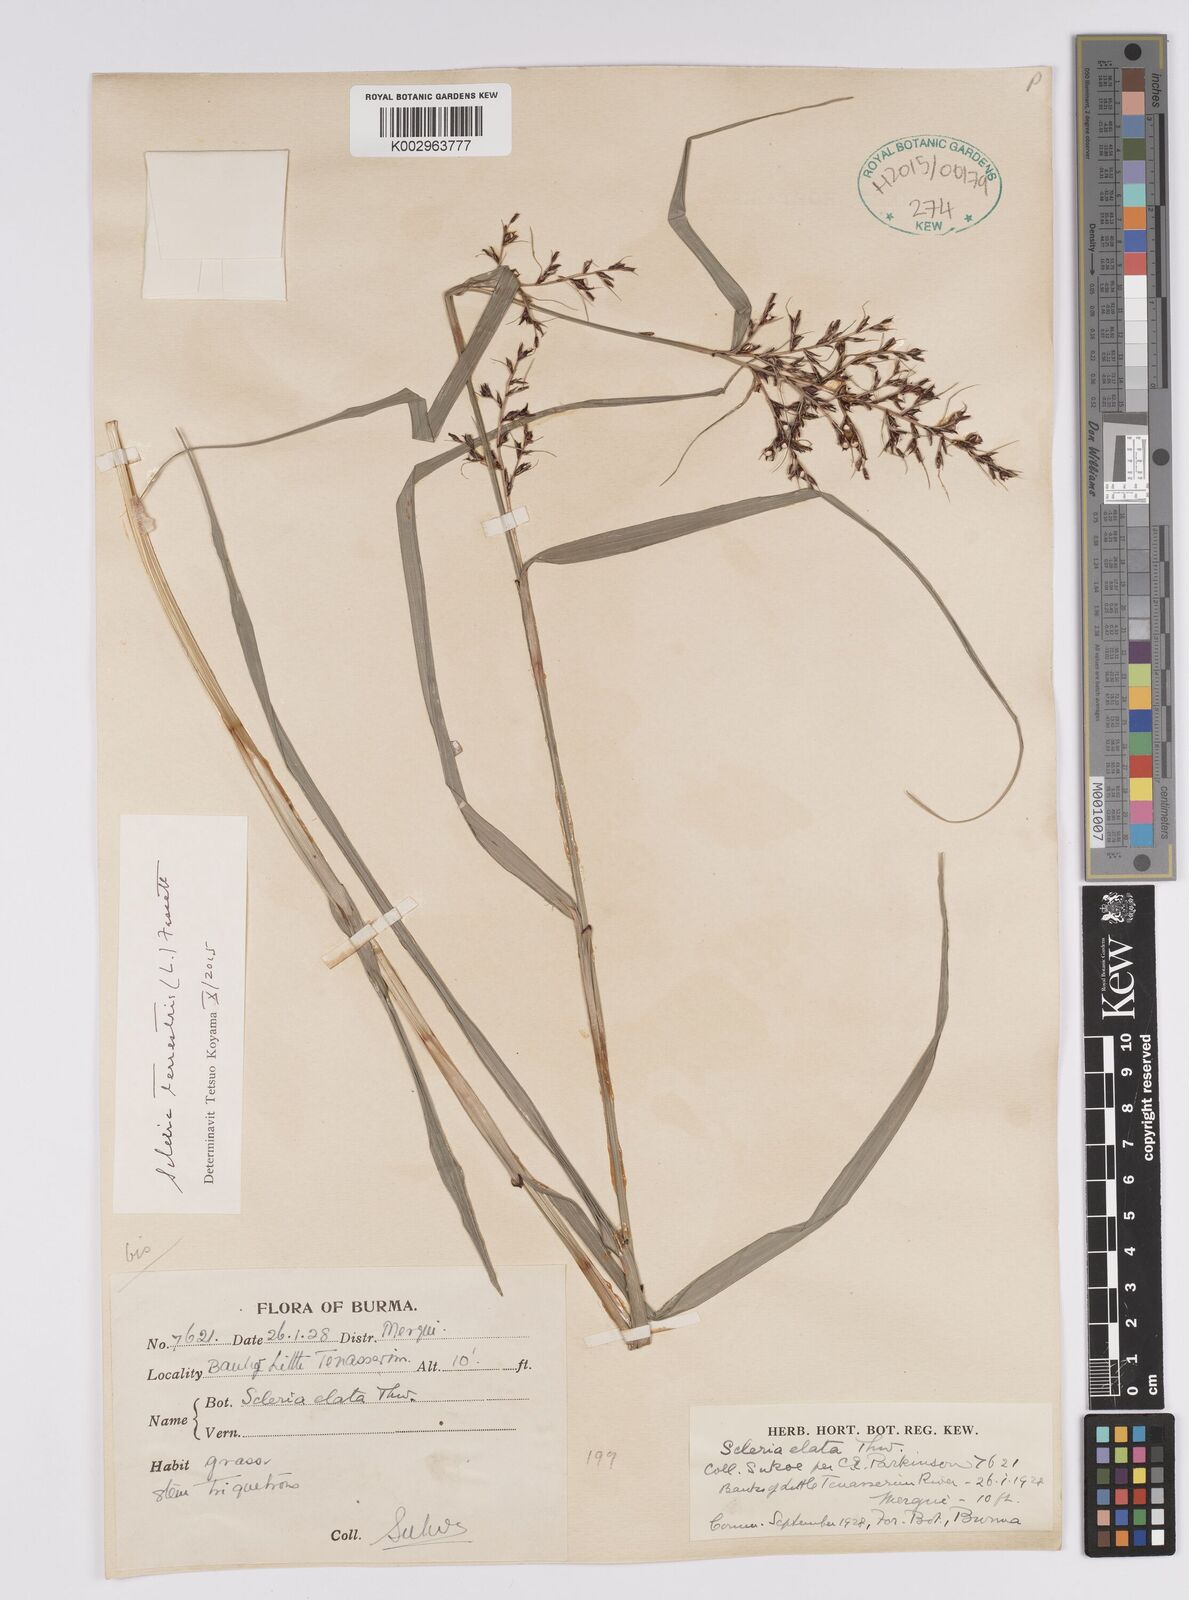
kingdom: Plantae
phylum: Tracheophyta
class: Liliopsida
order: Poales
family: Cyperaceae
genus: Scleria
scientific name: Scleria terrestris
